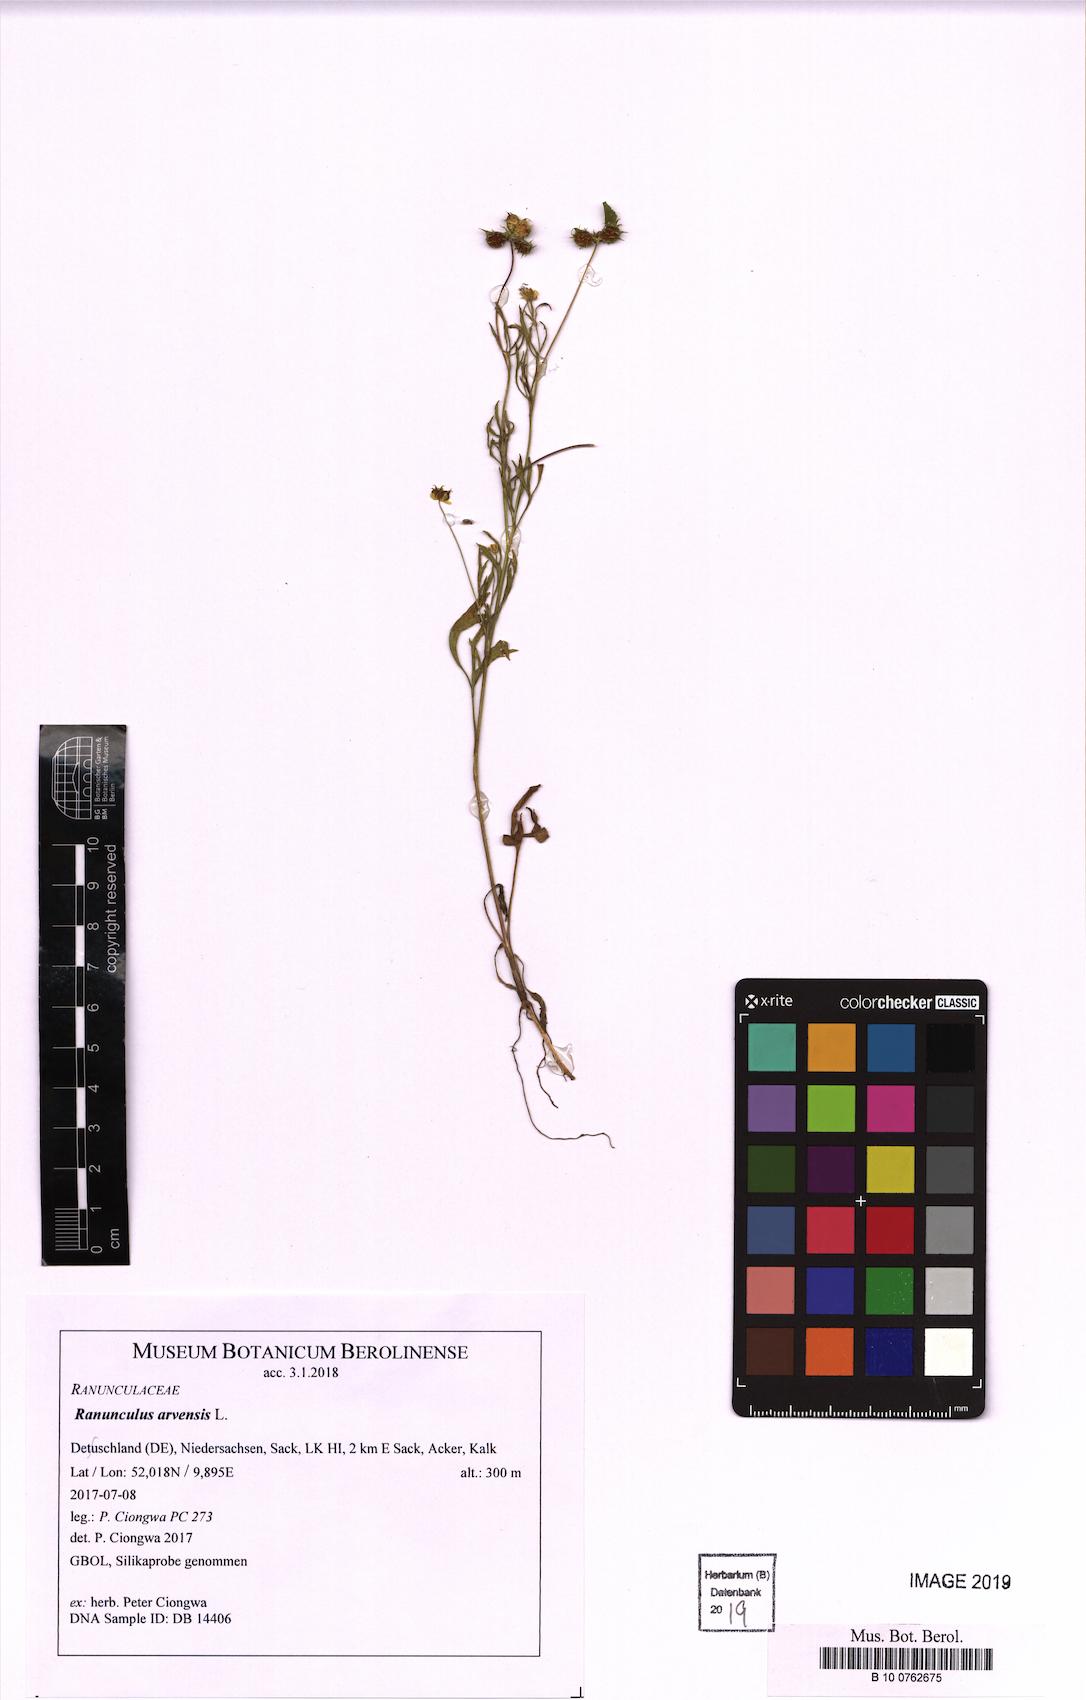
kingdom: Plantae
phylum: Tracheophyta
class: Magnoliopsida
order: Ranunculales
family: Ranunculaceae
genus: Ranunculus
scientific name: Ranunculus arvensis
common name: Corn buttercup
